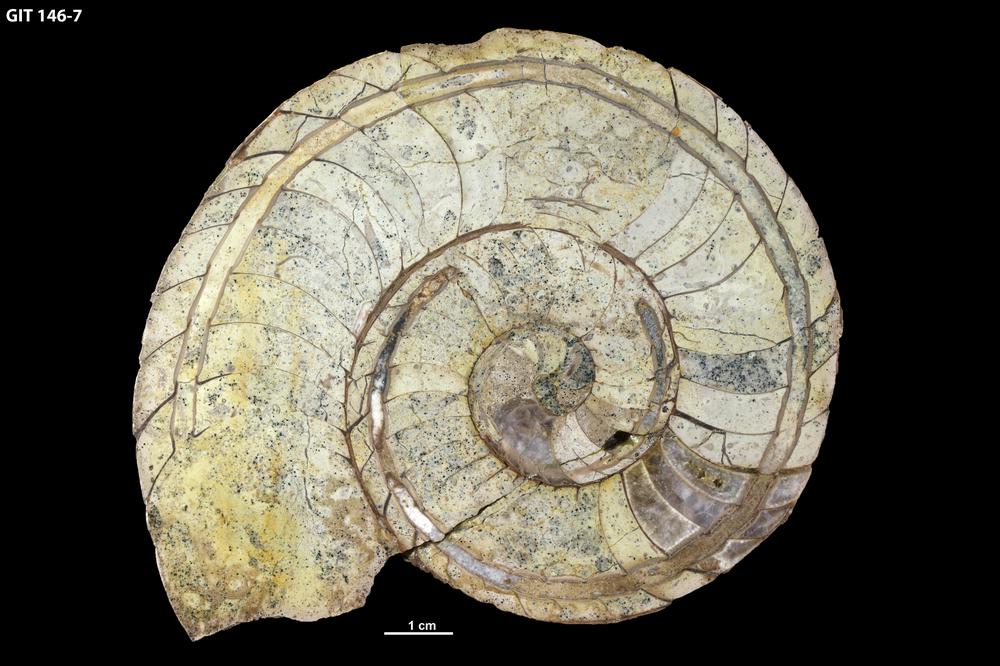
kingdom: Animalia
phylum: Mollusca
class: Cephalopoda
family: Estonioceratidae
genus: Estonioceras
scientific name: Estonioceras
